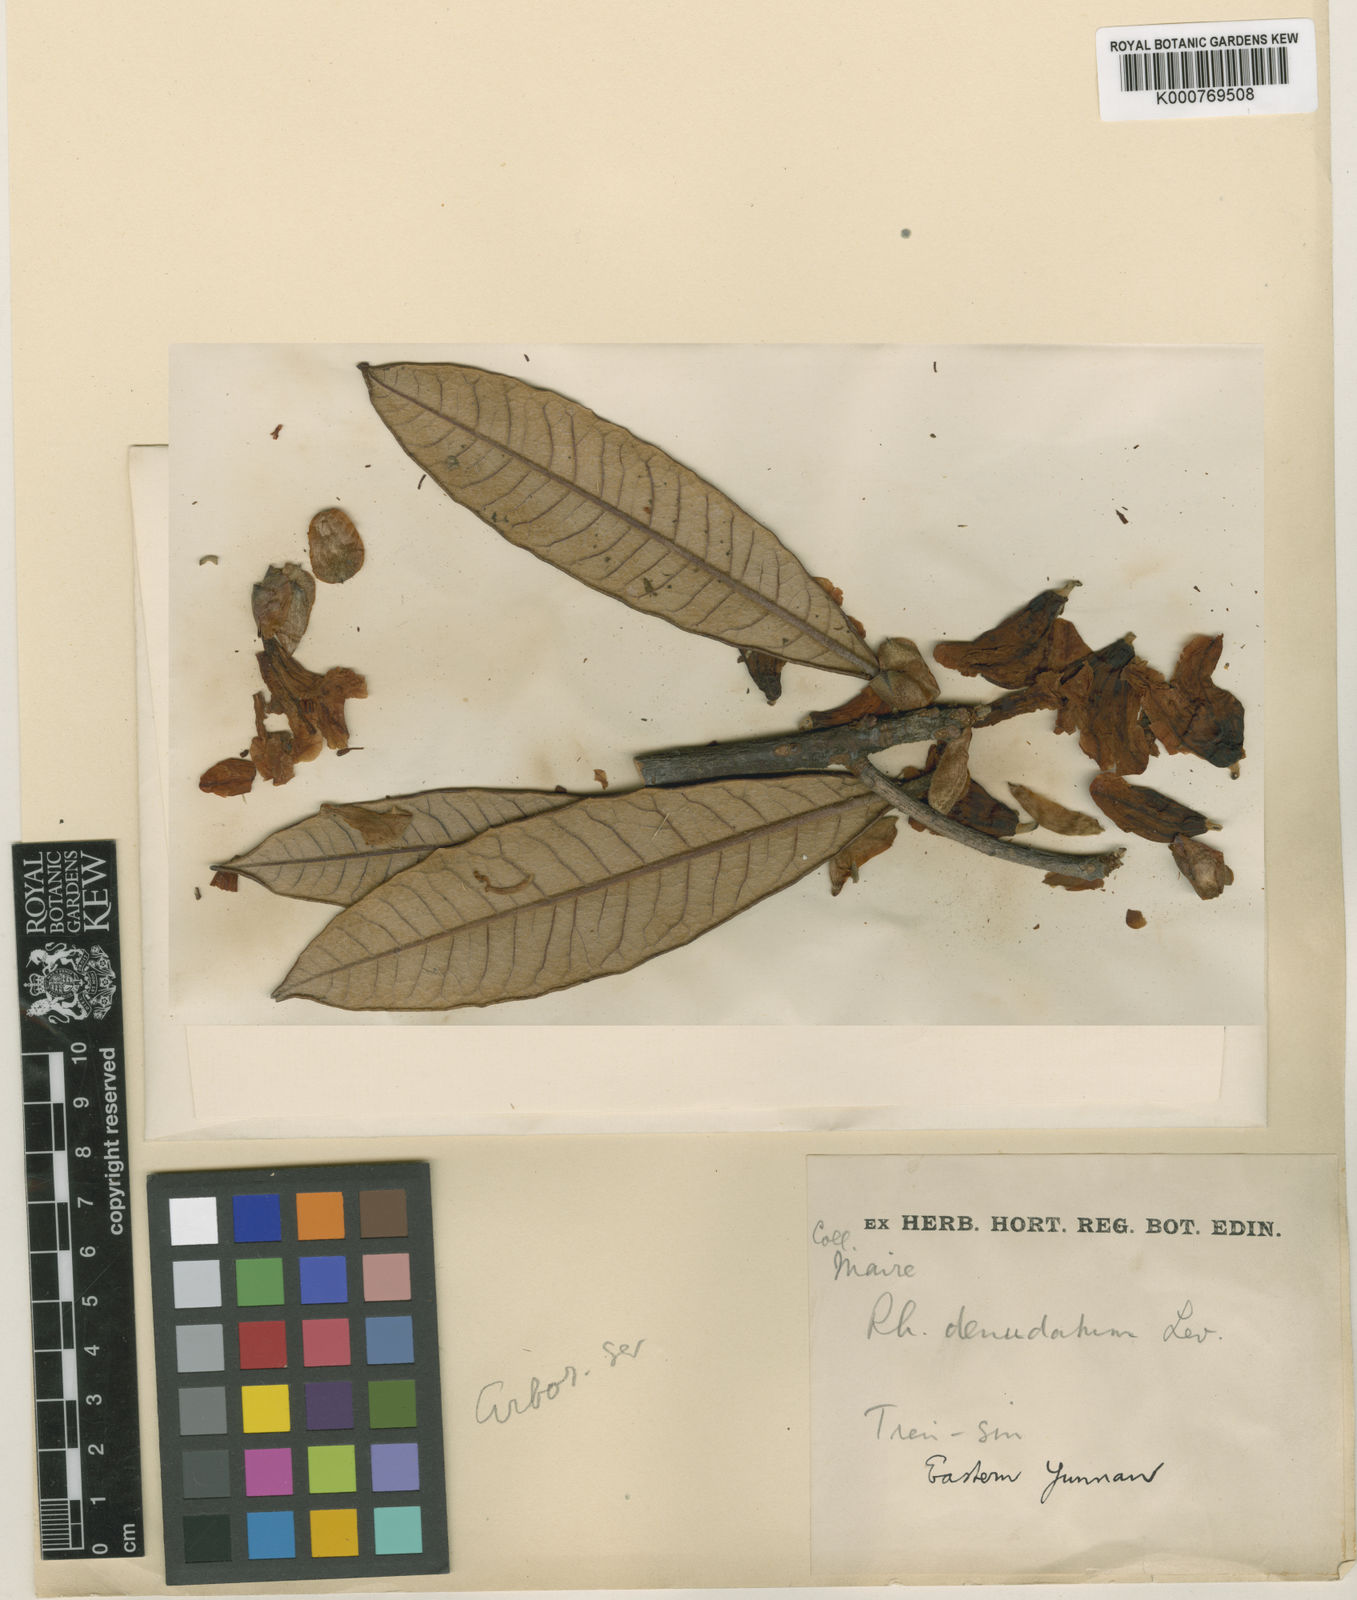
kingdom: Plantae
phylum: Tracheophyta
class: Magnoliopsida
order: Ericales
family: Ericaceae
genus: Rhododendron
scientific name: Rhododendron
